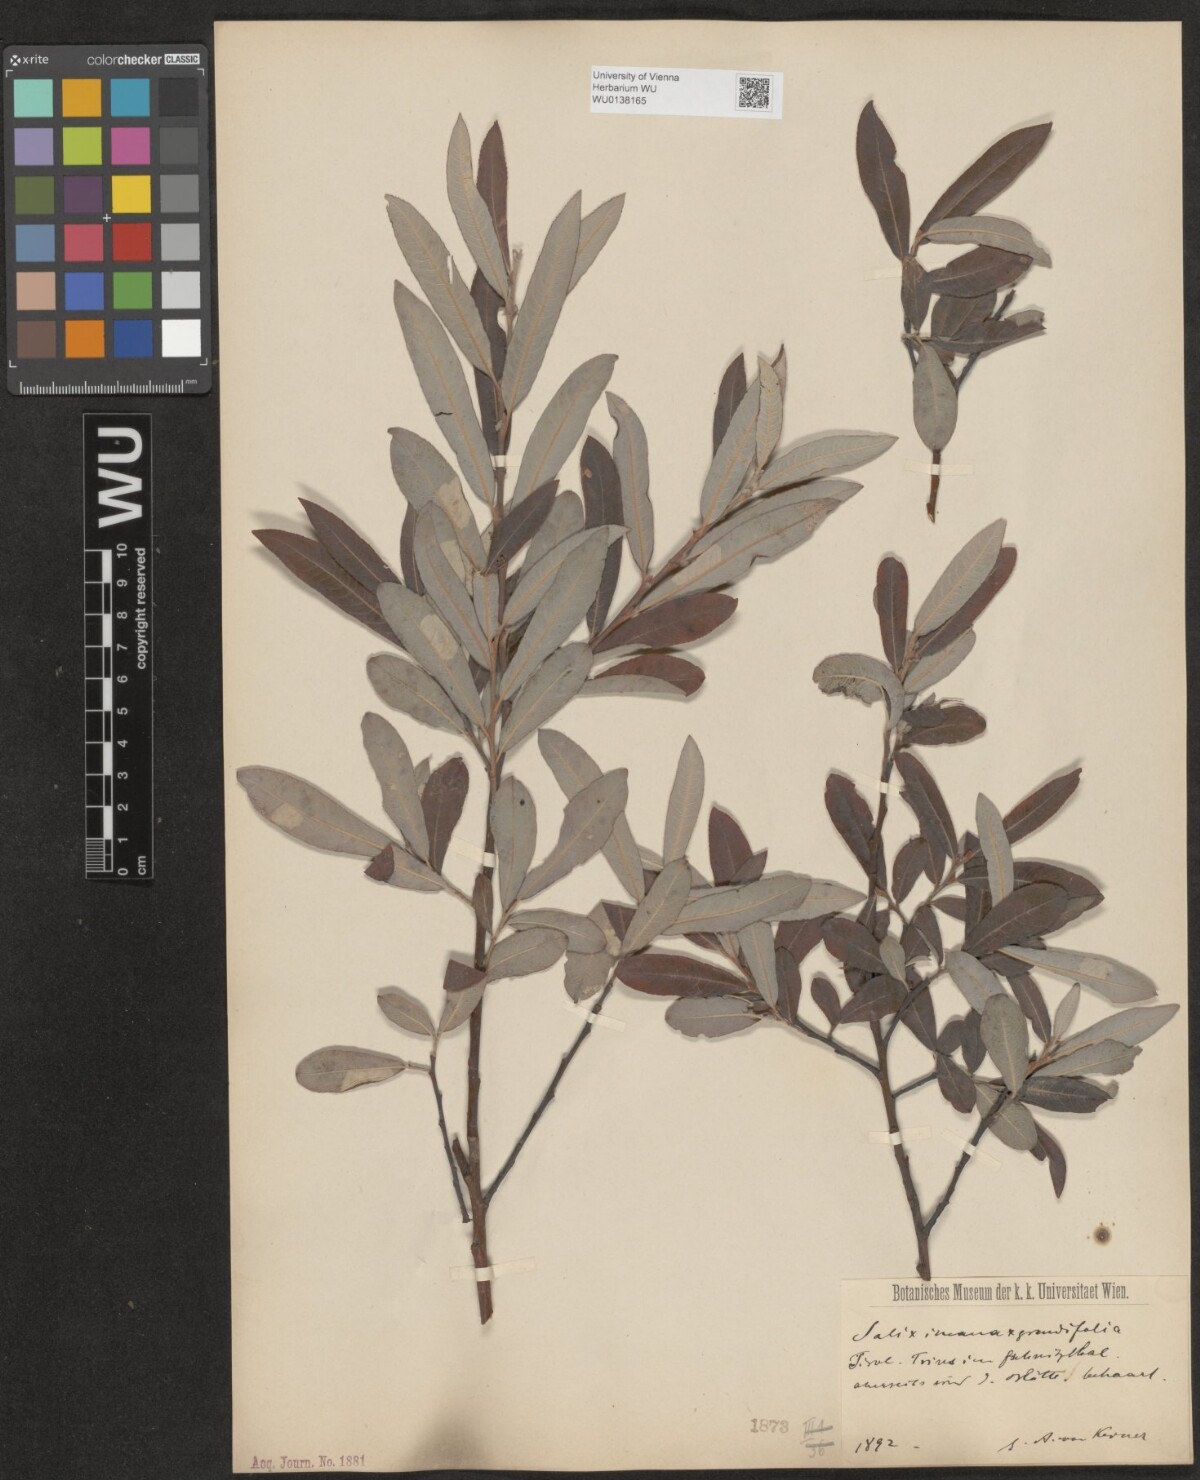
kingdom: Plantae
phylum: Tracheophyta
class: Magnoliopsida
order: Malpighiales
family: Salicaceae
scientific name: Salicaceae
